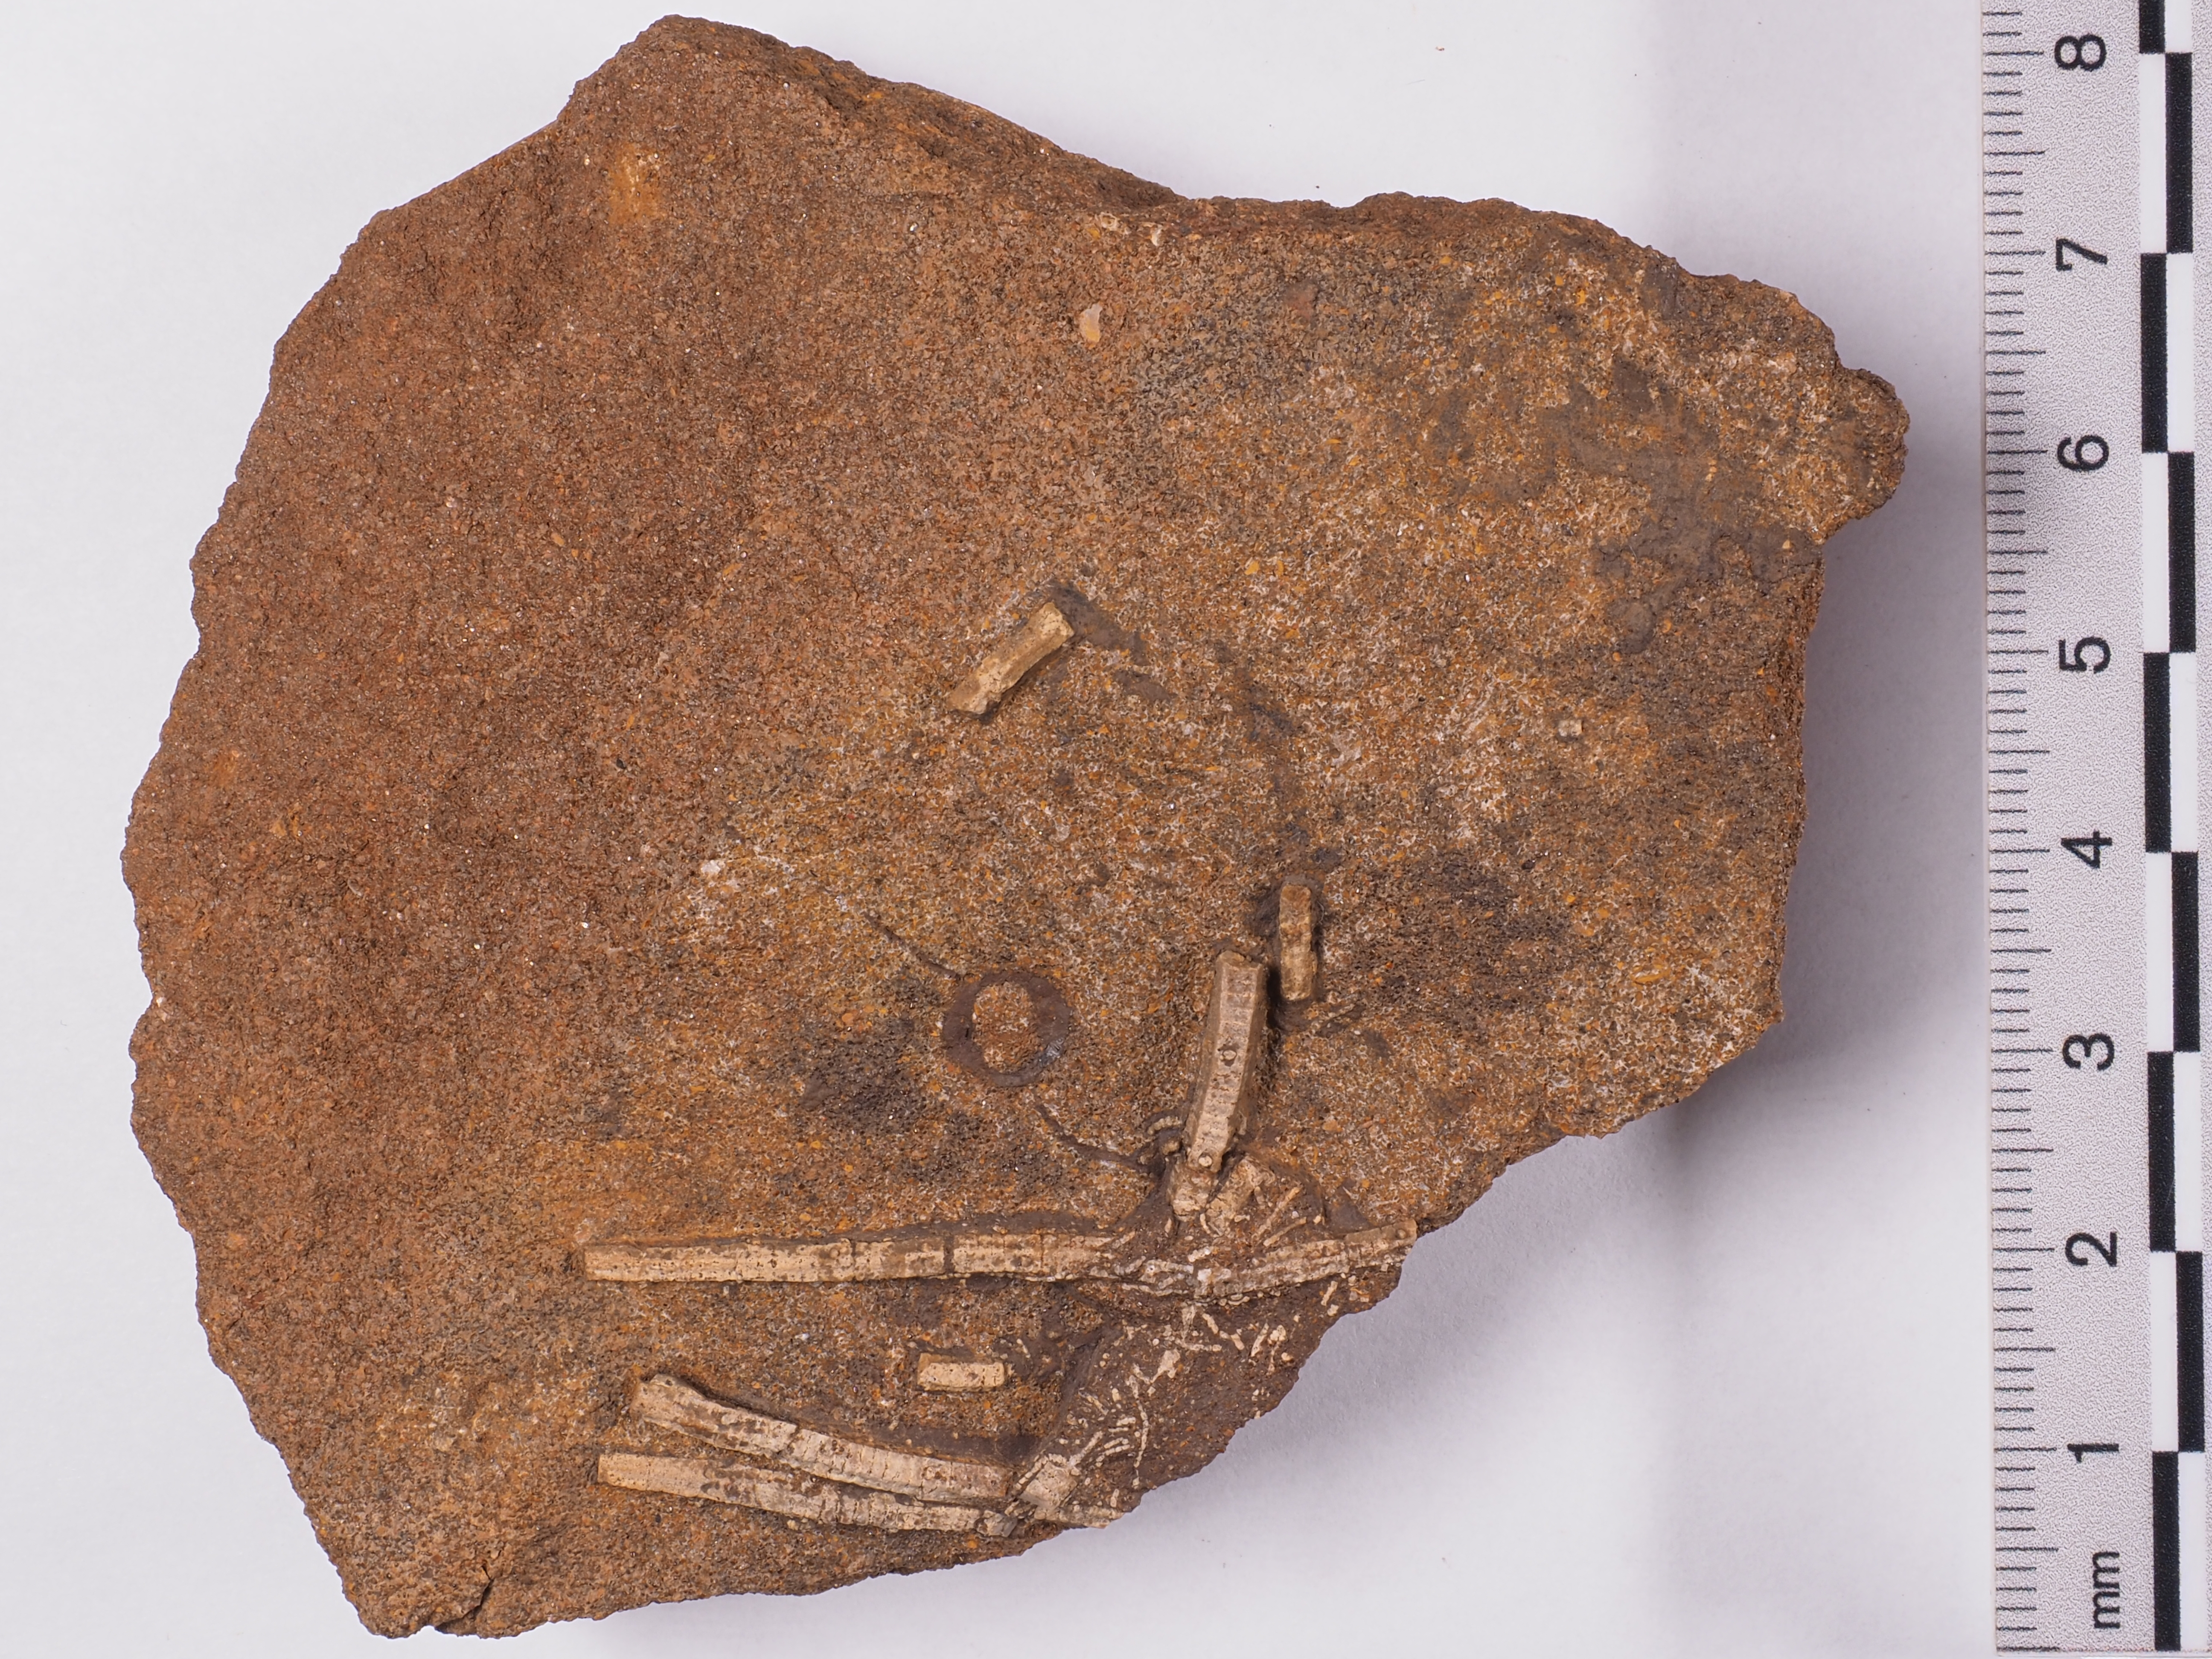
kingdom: Animalia
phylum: Echinodermata
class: Crinoidea
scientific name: Crinoidea
